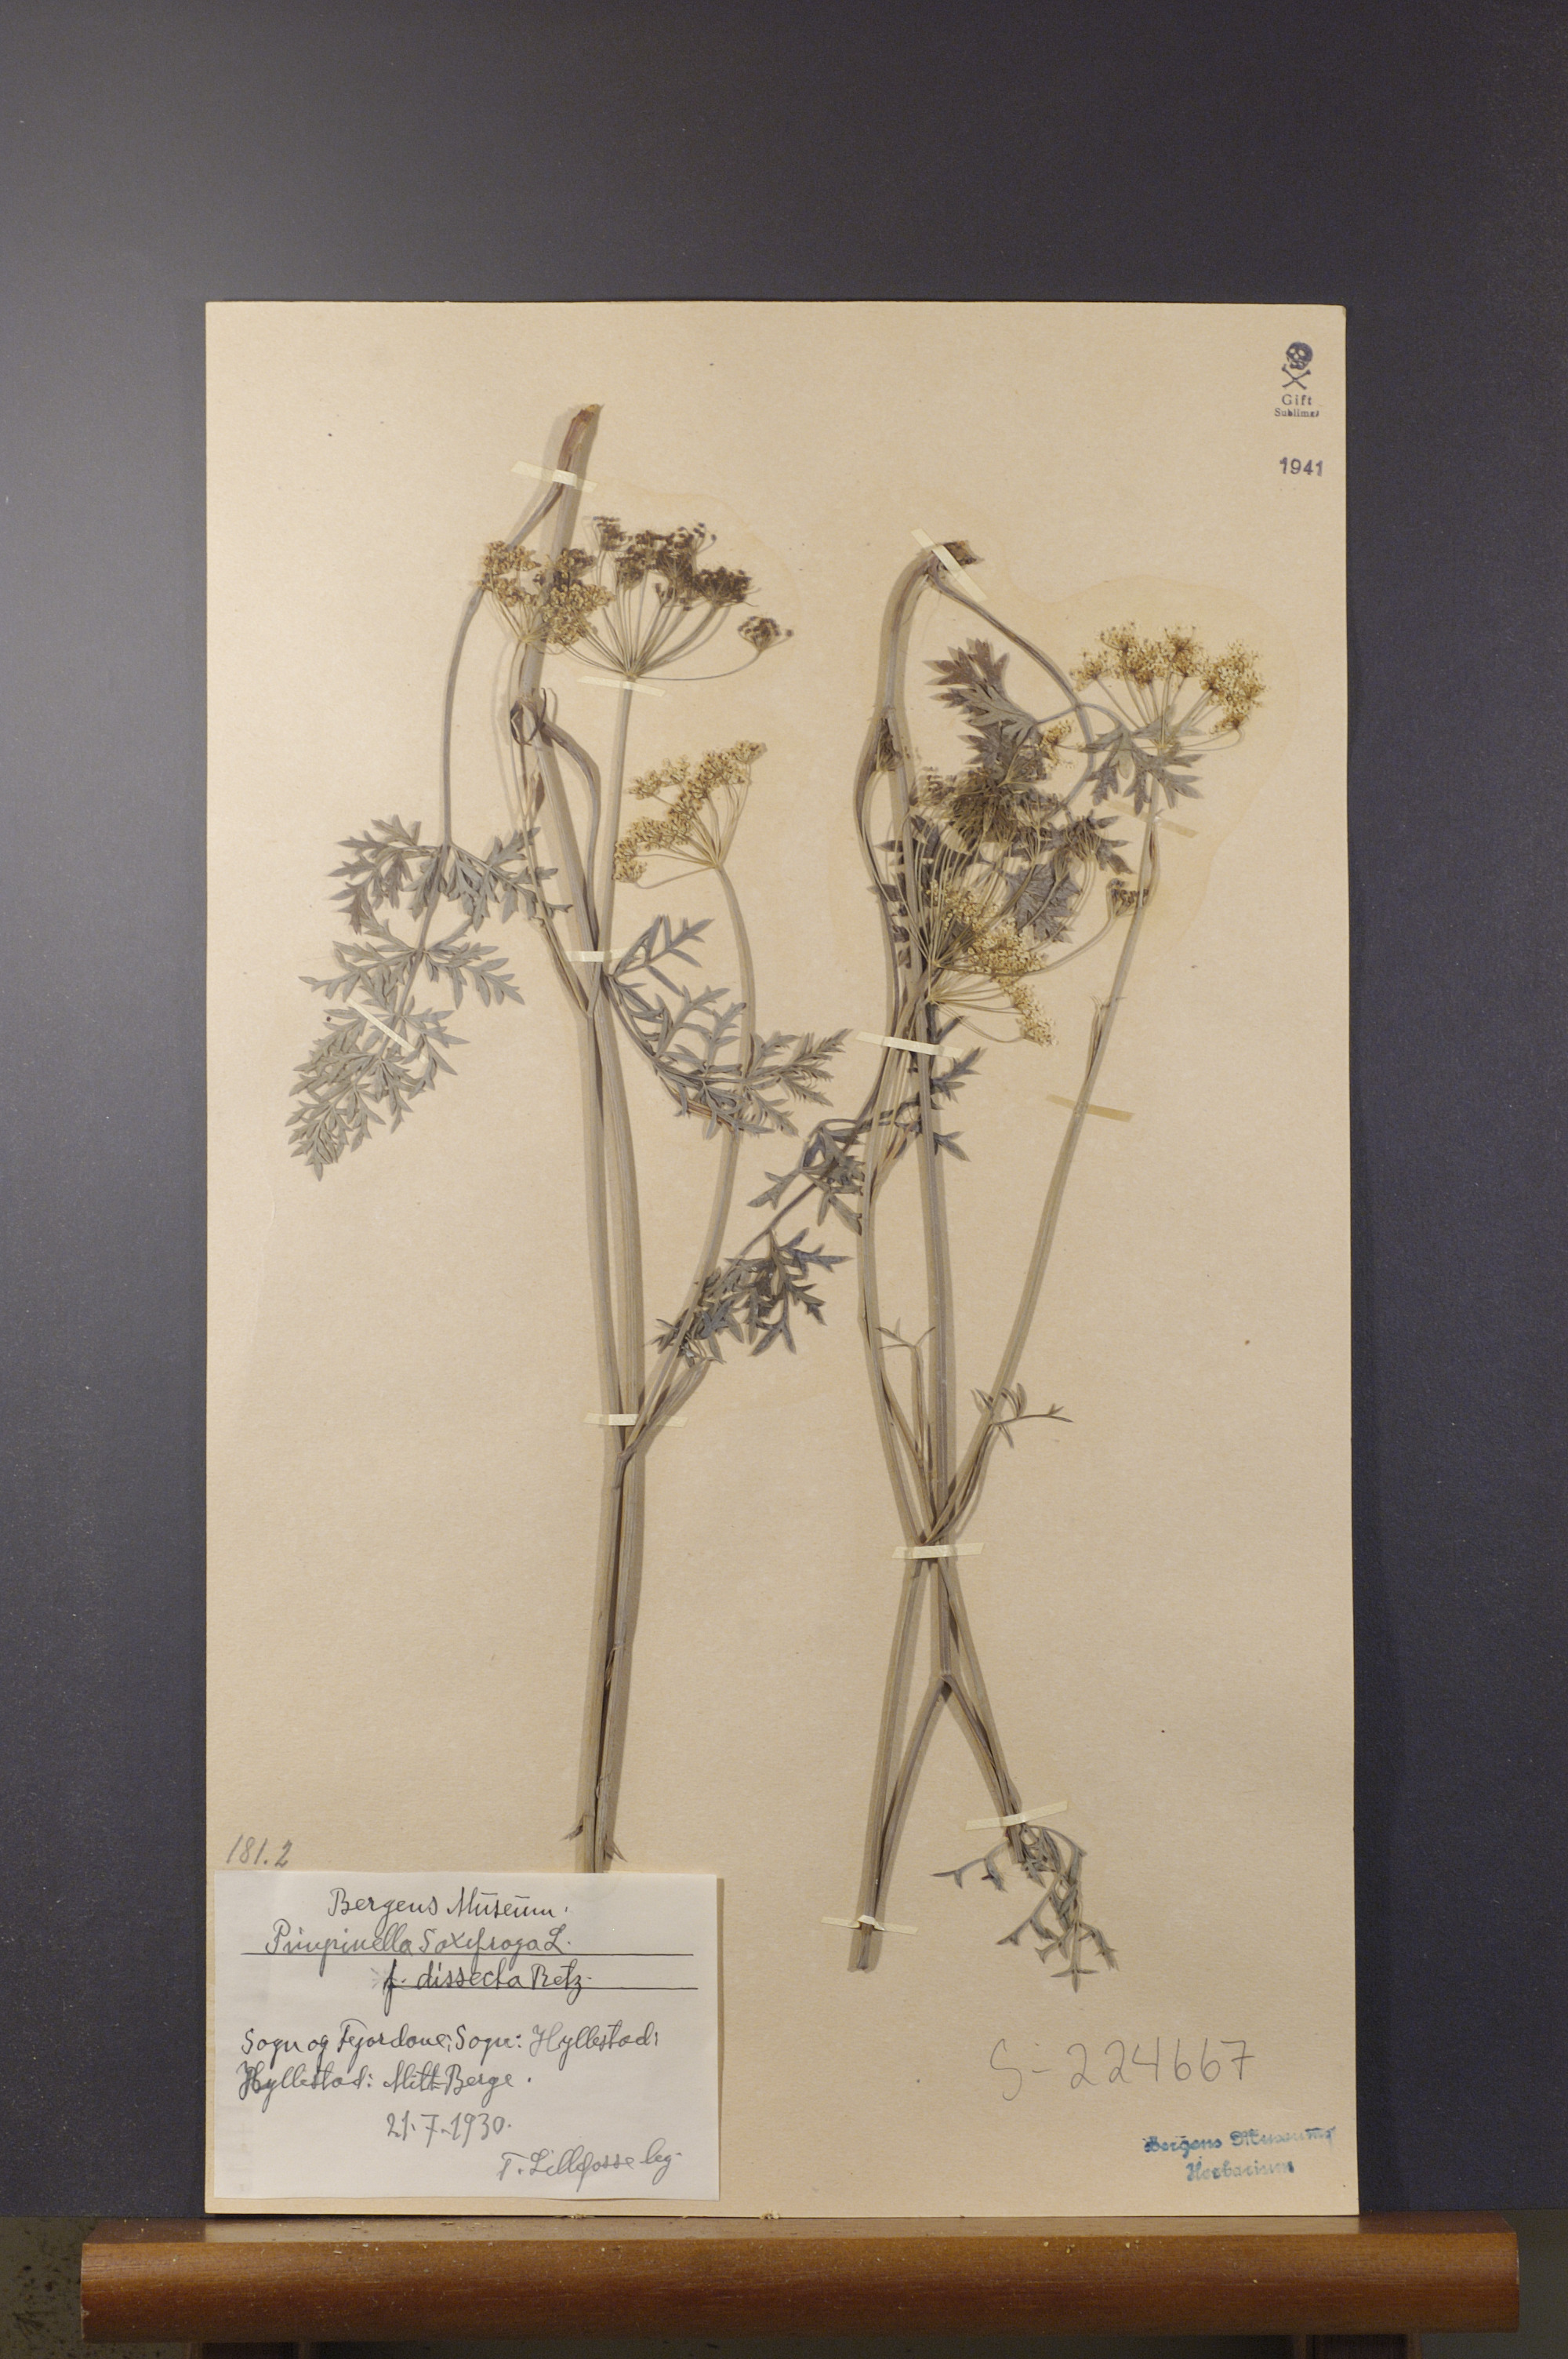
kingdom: Plantae
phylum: Tracheophyta
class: Magnoliopsida
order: Apiales
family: Apiaceae
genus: Pimpinella
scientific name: Pimpinella saxifraga
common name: Burnet-saxifrage
